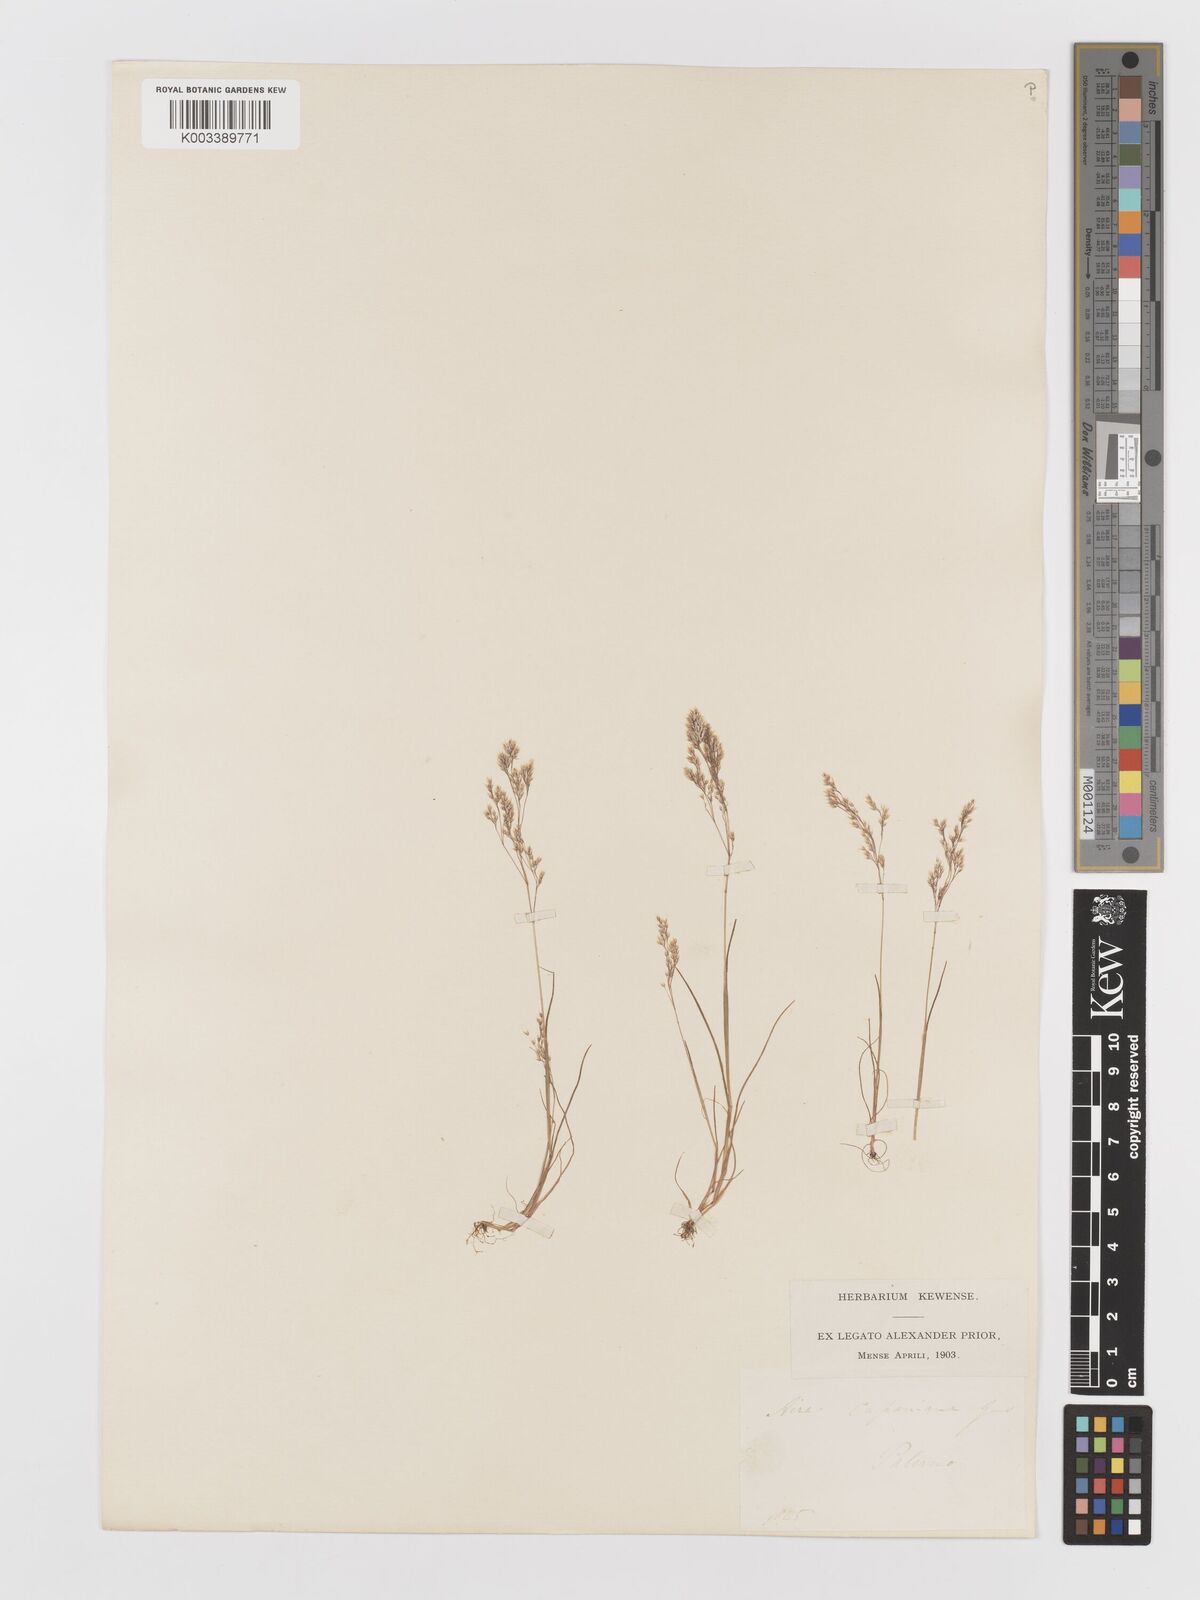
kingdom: Plantae
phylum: Tracheophyta
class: Liliopsida
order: Poales
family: Poaceae
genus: Aira
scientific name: Aira cupaniana
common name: Silver hairgrass
